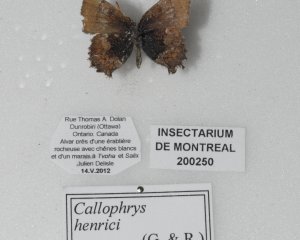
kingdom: Animalia
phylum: Arthropoda
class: Insecta
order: Lepidoptera
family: Lycaenidae
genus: Incisalia
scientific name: Incisalia henrici
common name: Henry's Elfin
